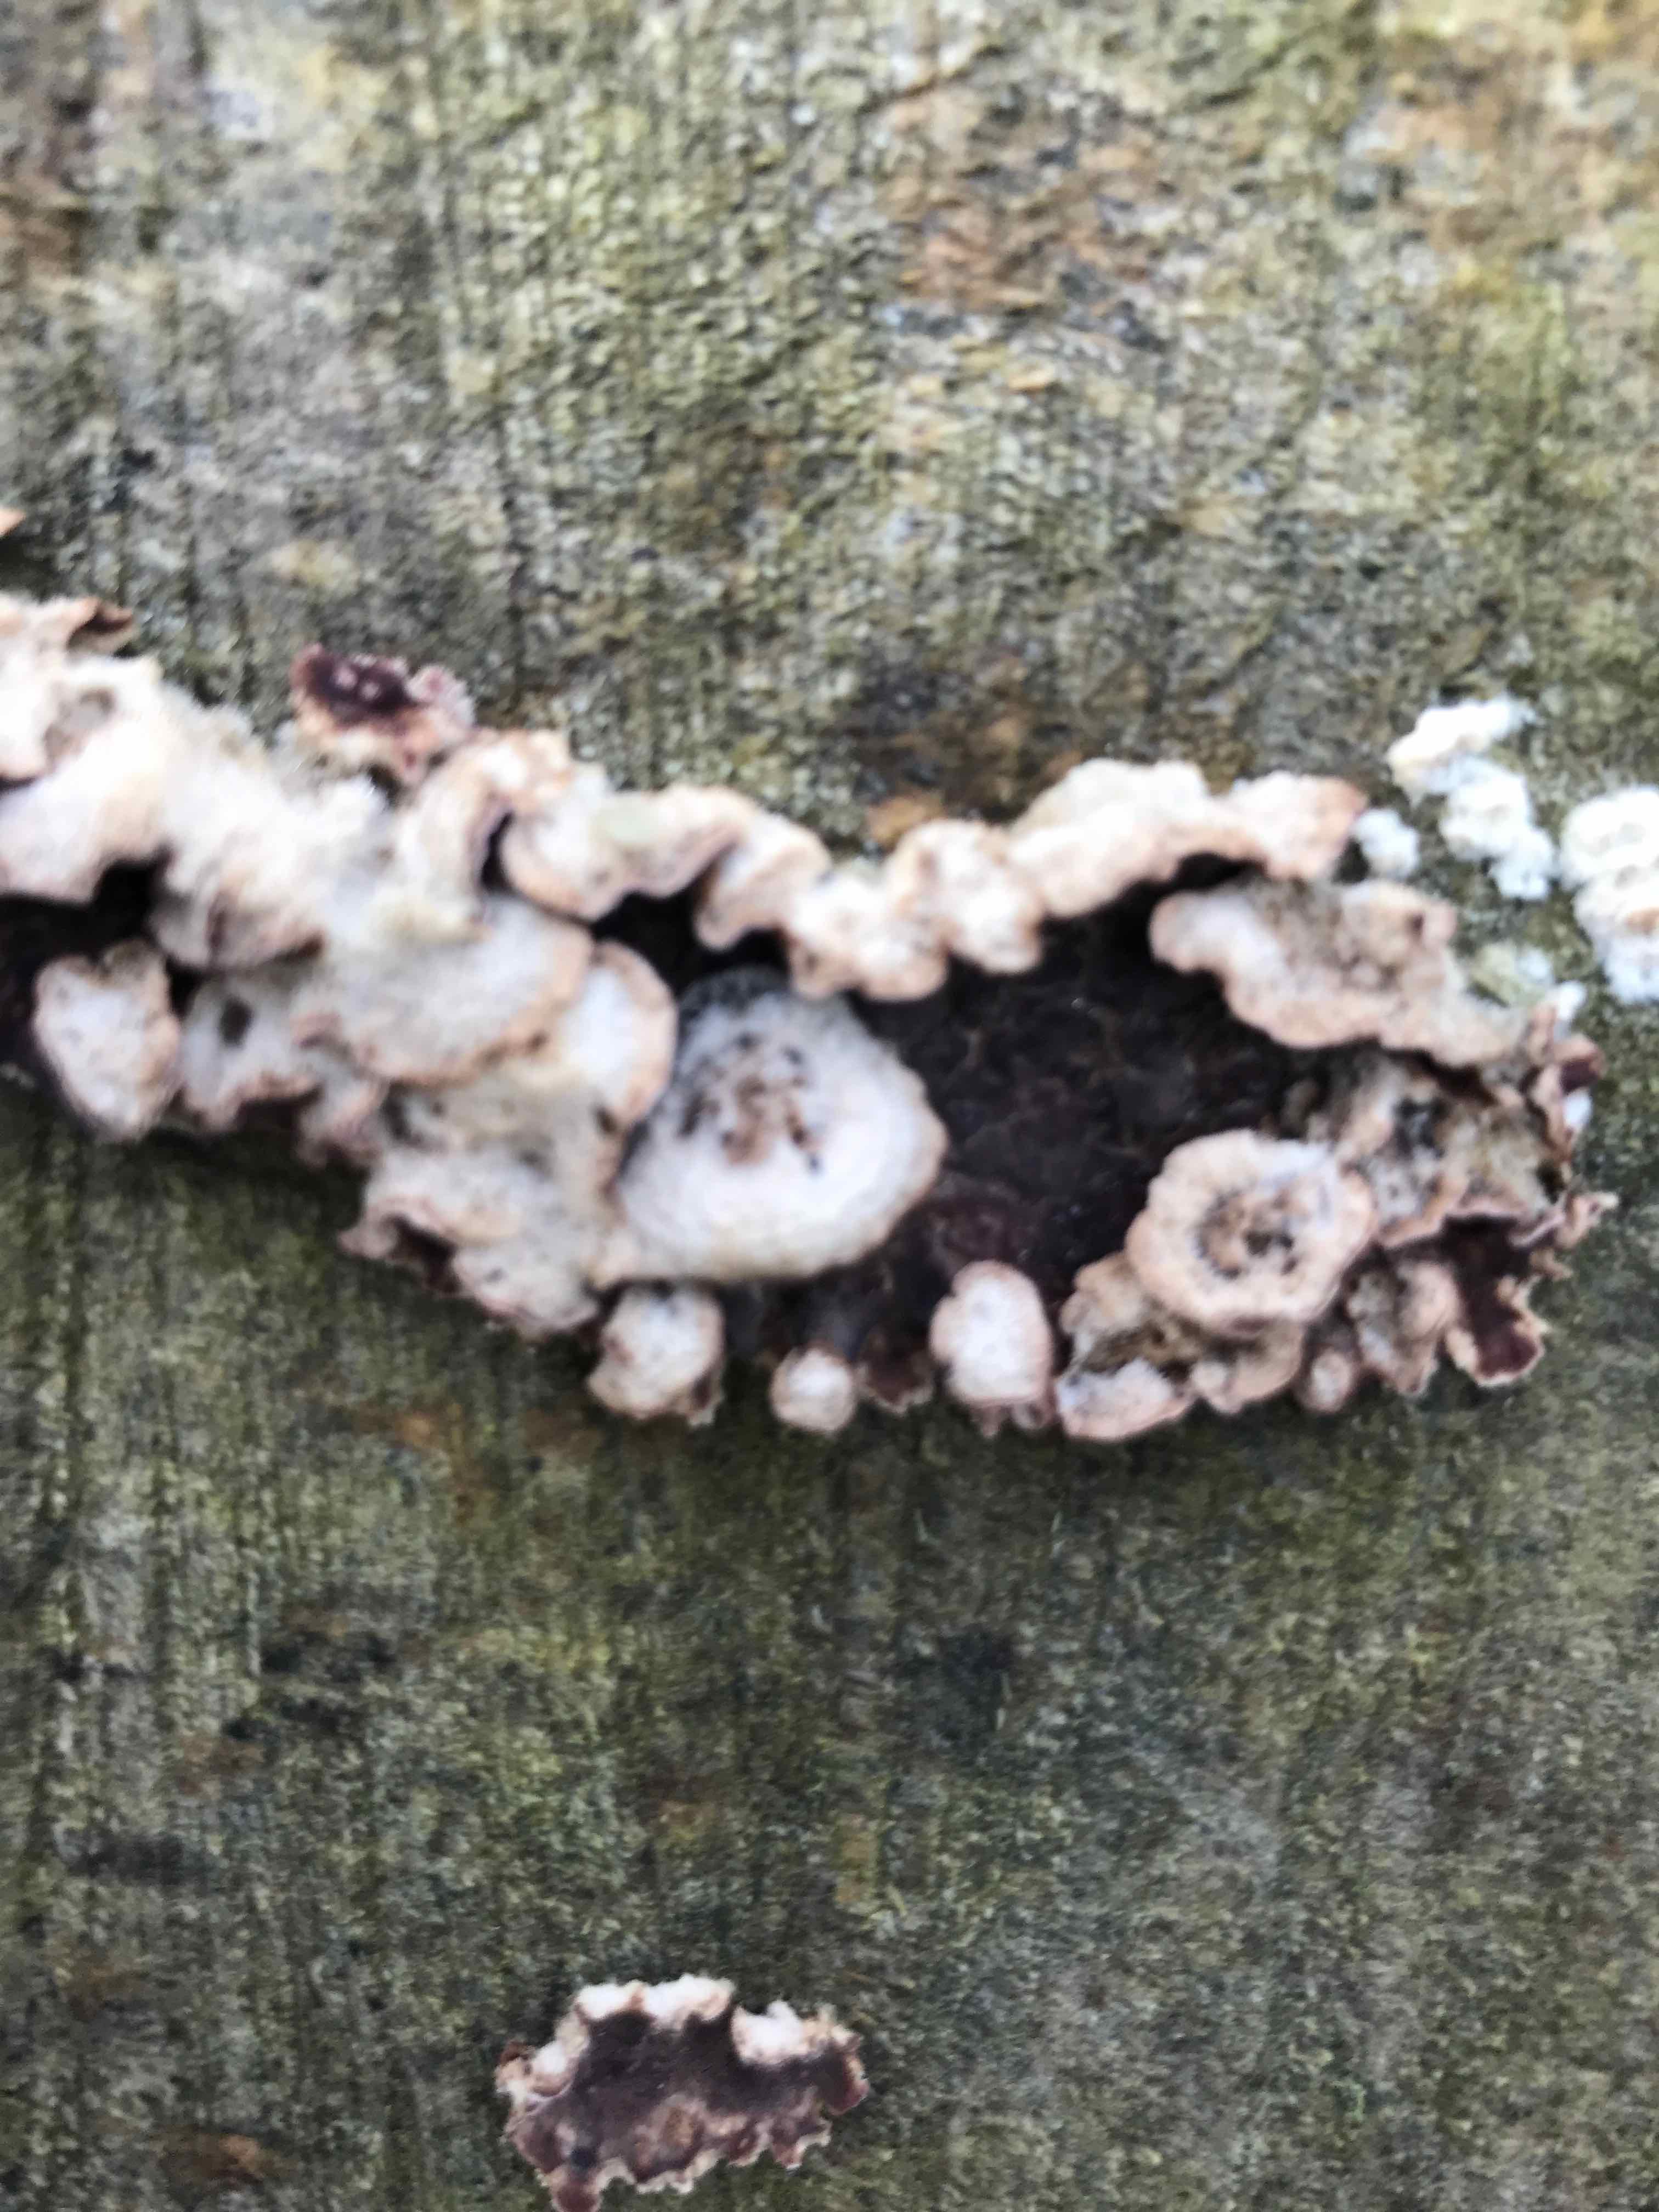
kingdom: Fungi
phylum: Basidiomycota
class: Agaricomycetes
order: Agaricales
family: Cyphellaceae
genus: Chondrostereum
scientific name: Chondrostereum purpureum
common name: purpurlædersvamp
